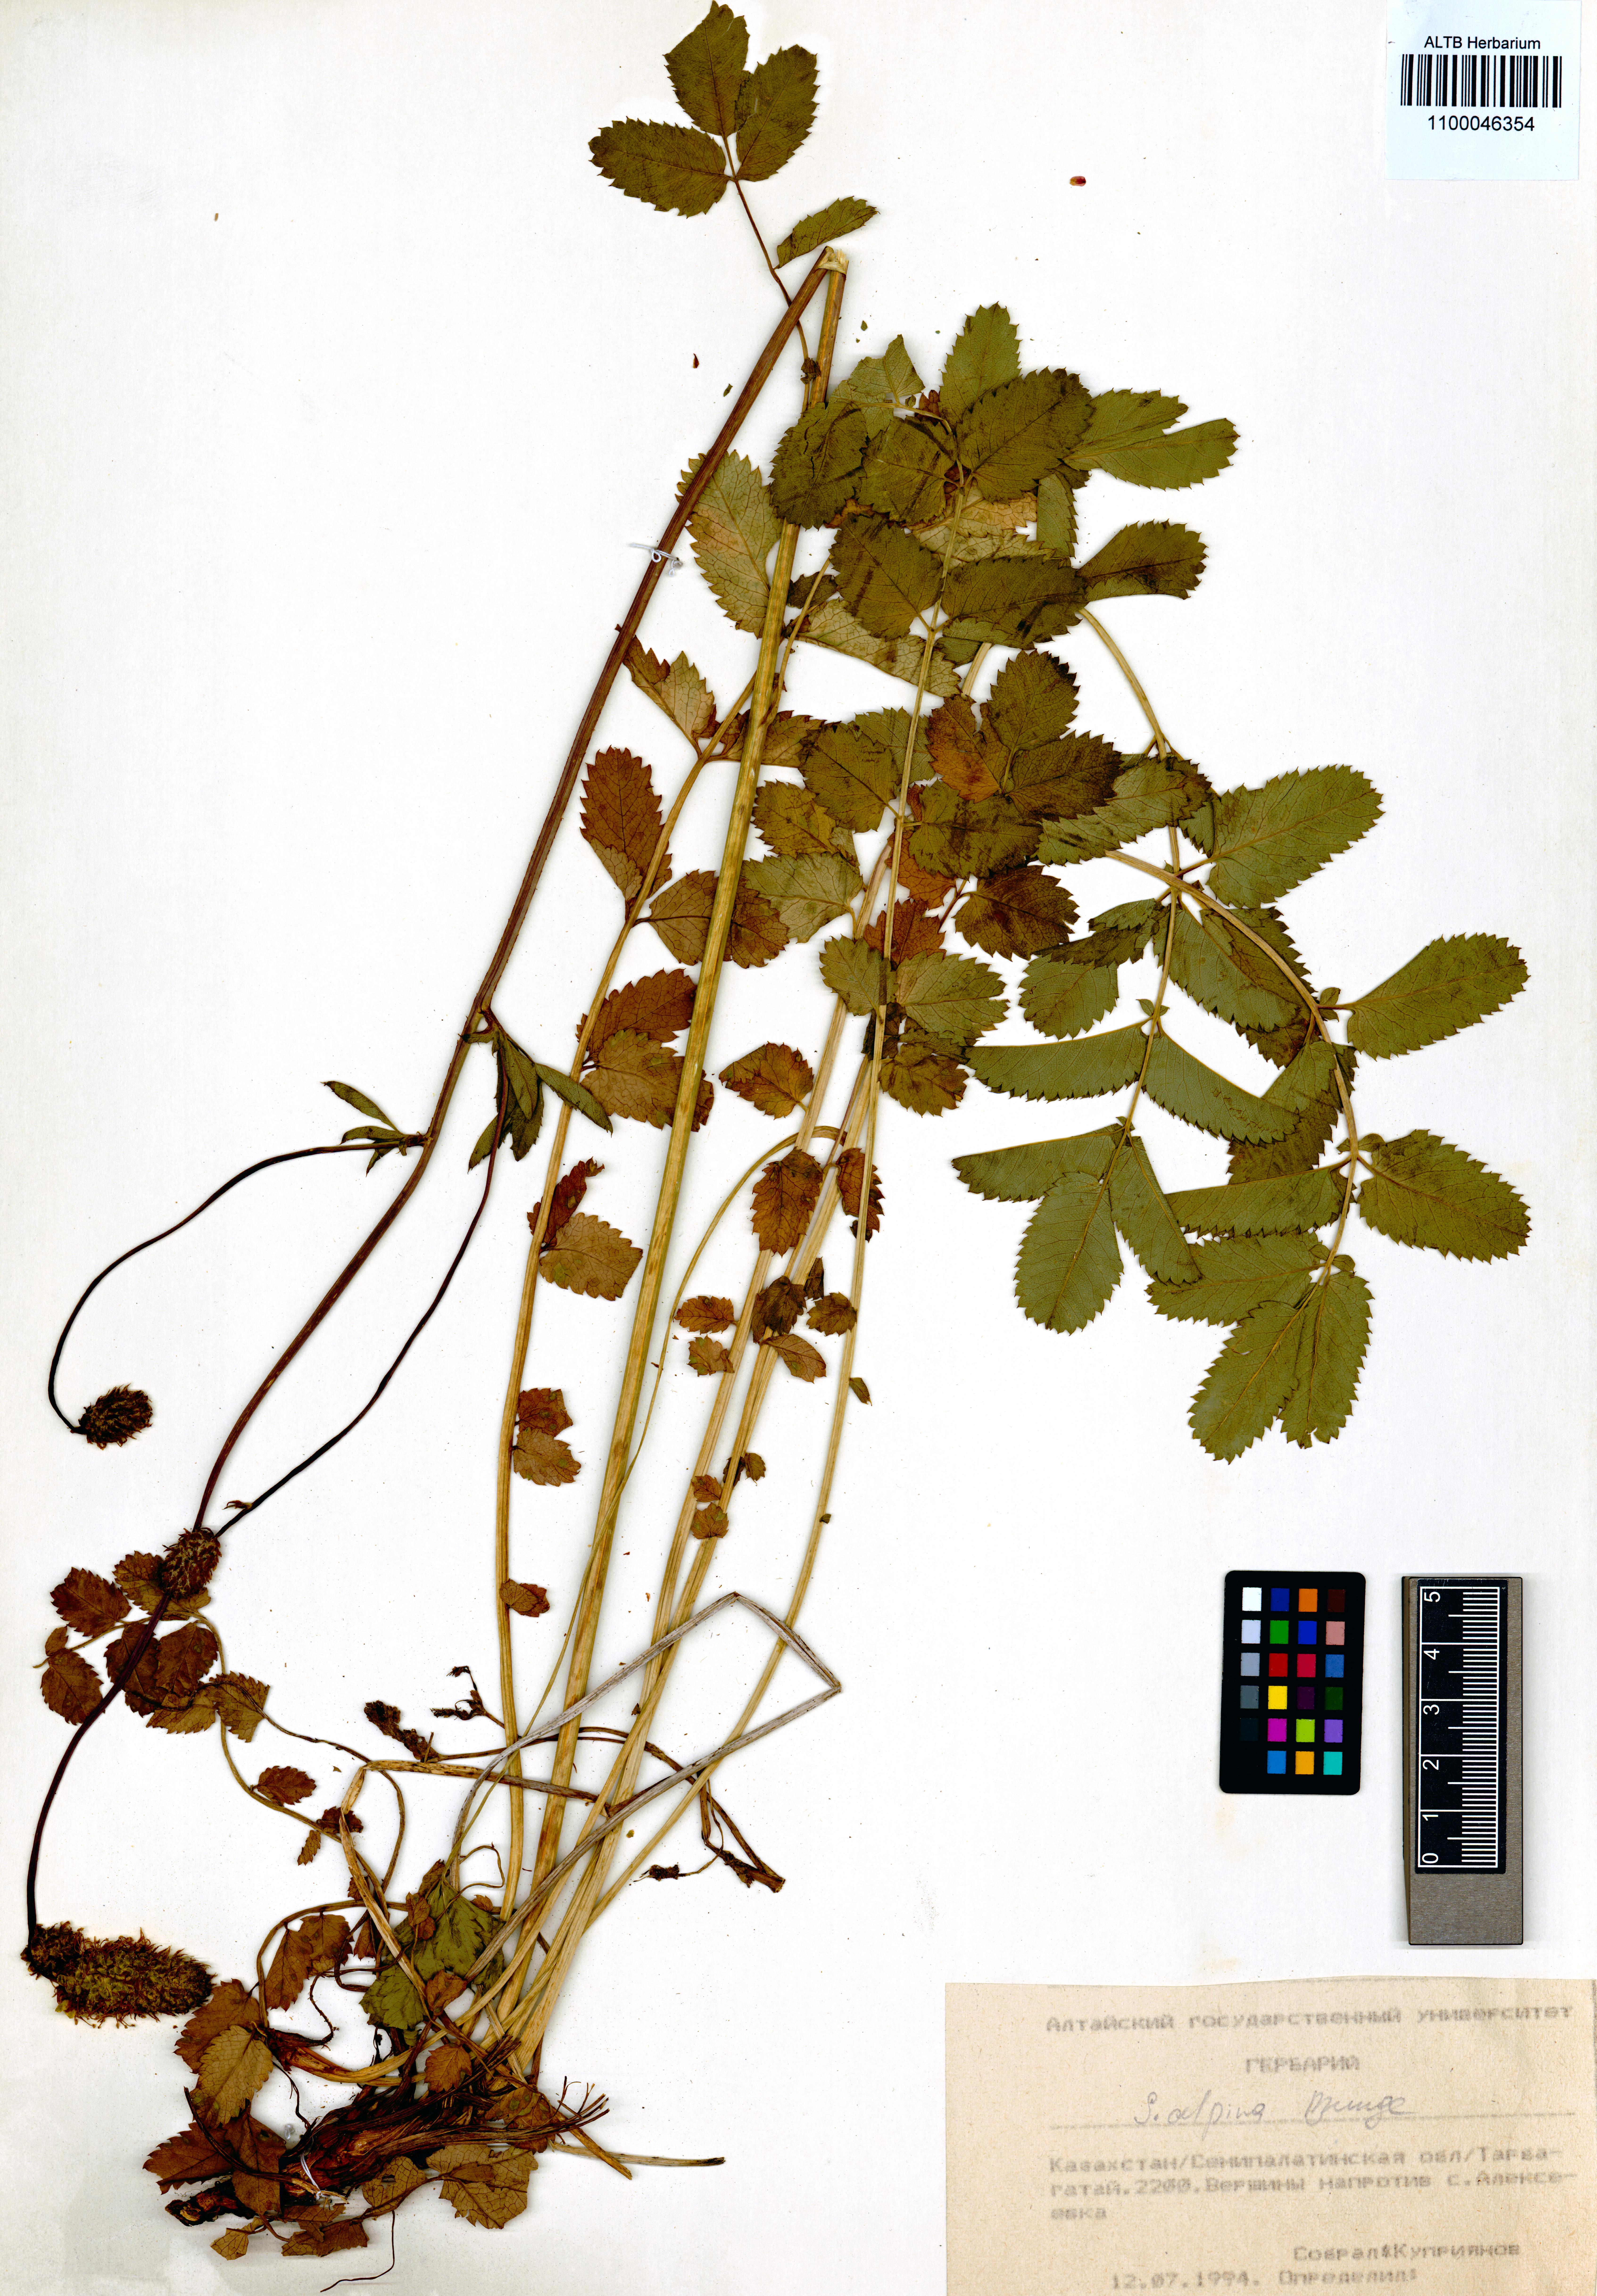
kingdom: Plantae
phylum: Tracheophyta
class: Magnoliopsida
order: Rosales
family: Rosaceae
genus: Sanguisorba
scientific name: Sanguisorba alpina
